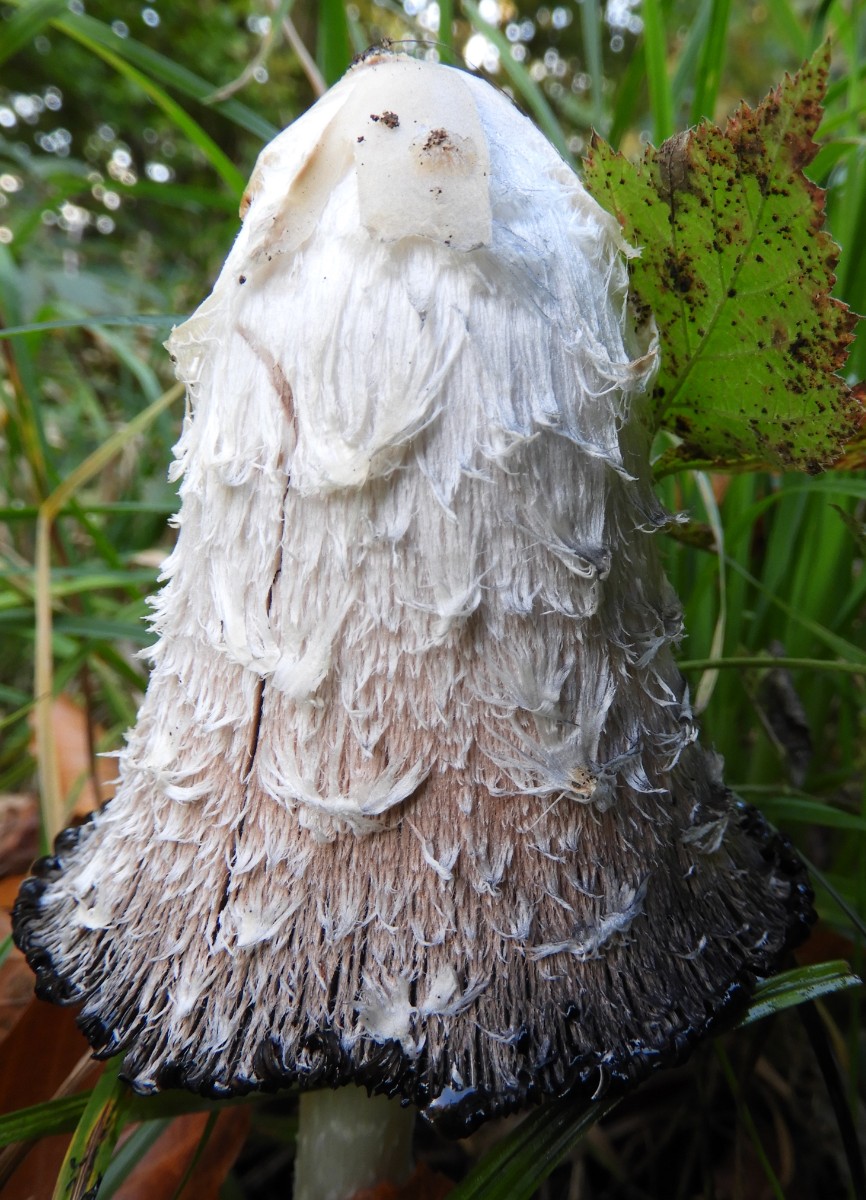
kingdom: Fungi
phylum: Basidiomycota
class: Agaricomycetes
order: Agaricales
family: Agaricaceae
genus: Coprinus
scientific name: Coprinus comatus
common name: stor parykhat
